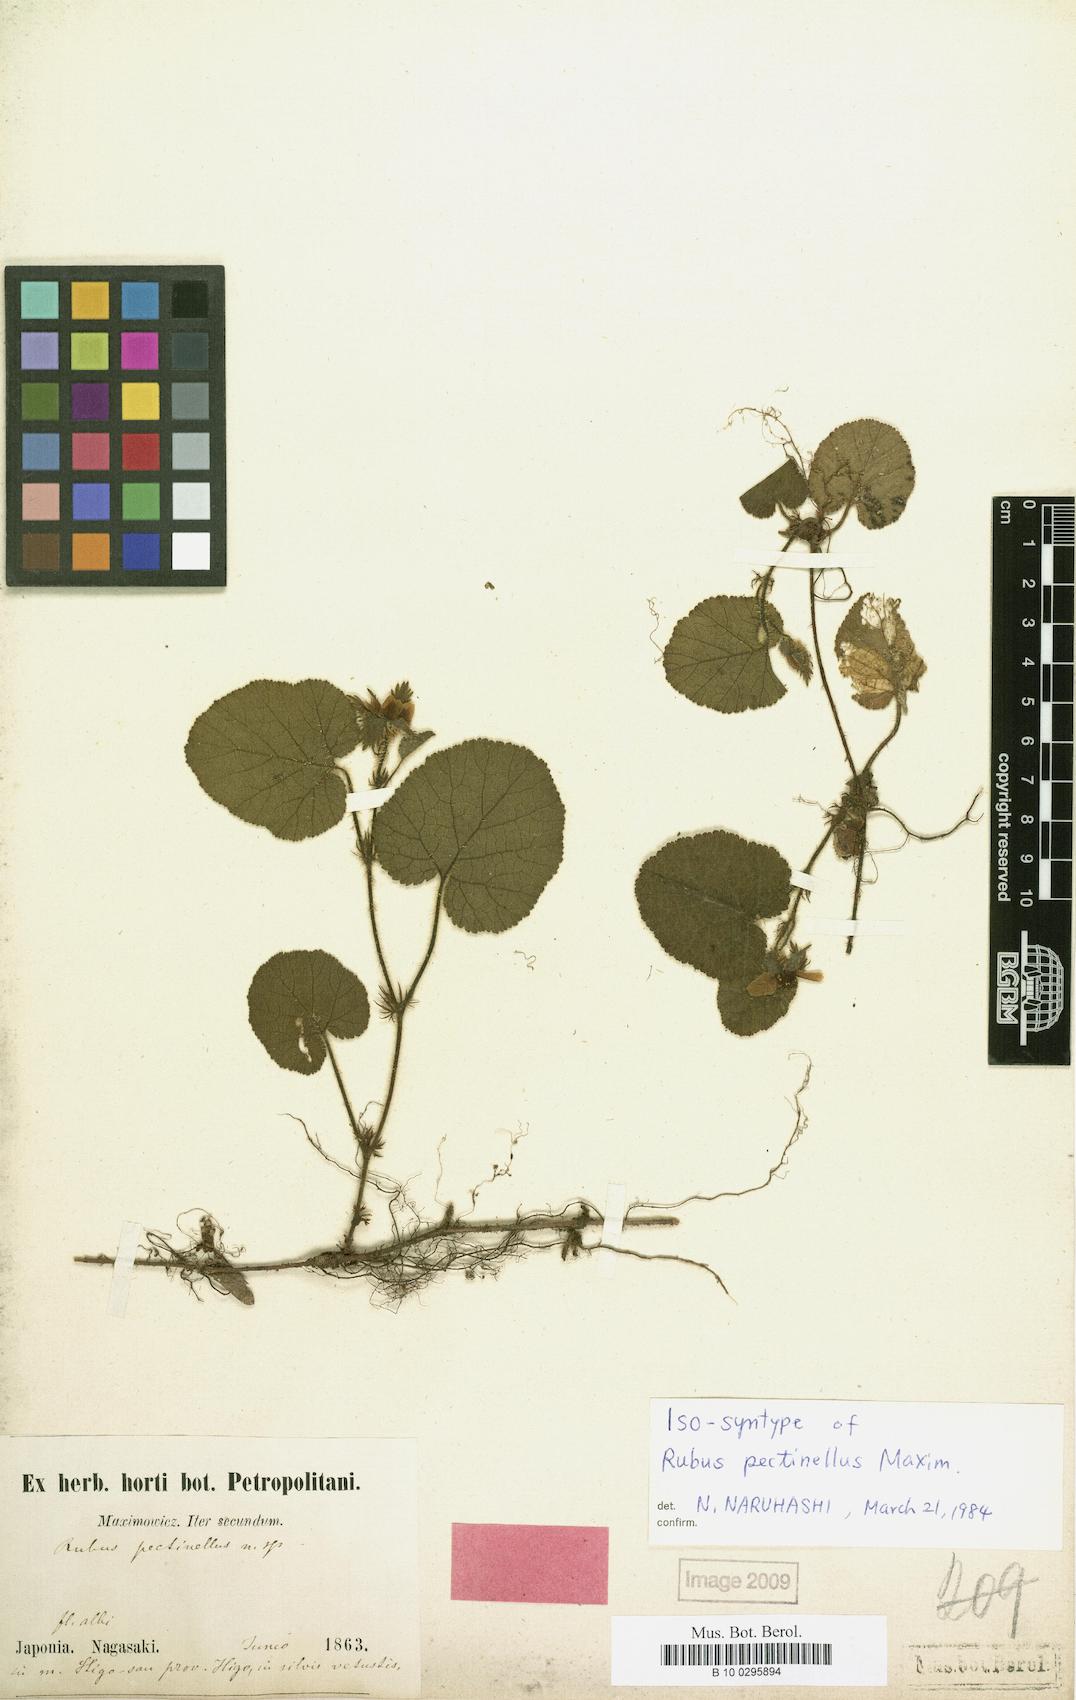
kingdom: Plantae
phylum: Tracheophyta
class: Magnoliopsida
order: Rosales
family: Rosaceae
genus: Rubus
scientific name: Rubus pectinellus
